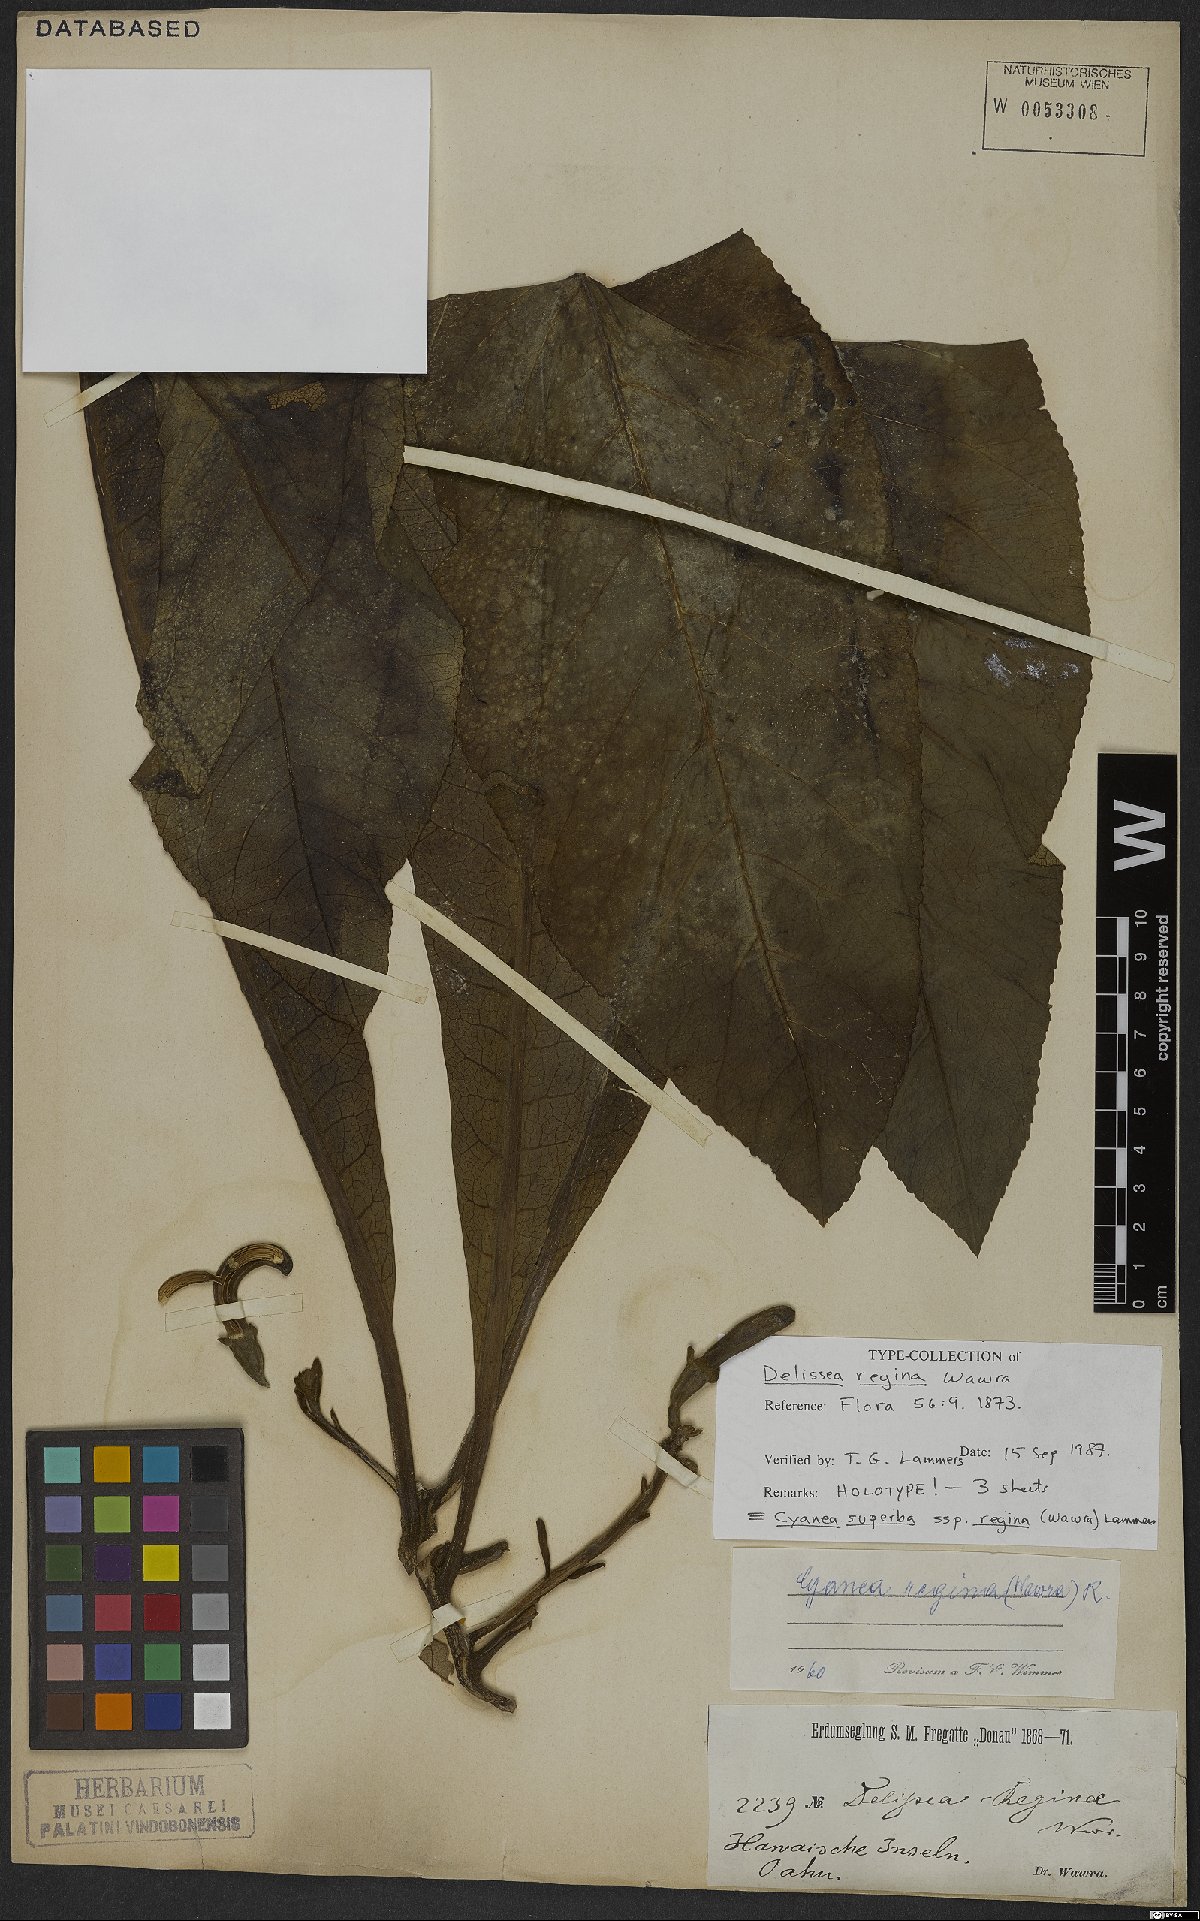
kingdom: Plantae
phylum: Tracheophyta
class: Magnoliopsida
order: Asterales
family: Campanulaceae
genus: Cyanea
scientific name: Cyanea superba
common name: Superb cyanea
